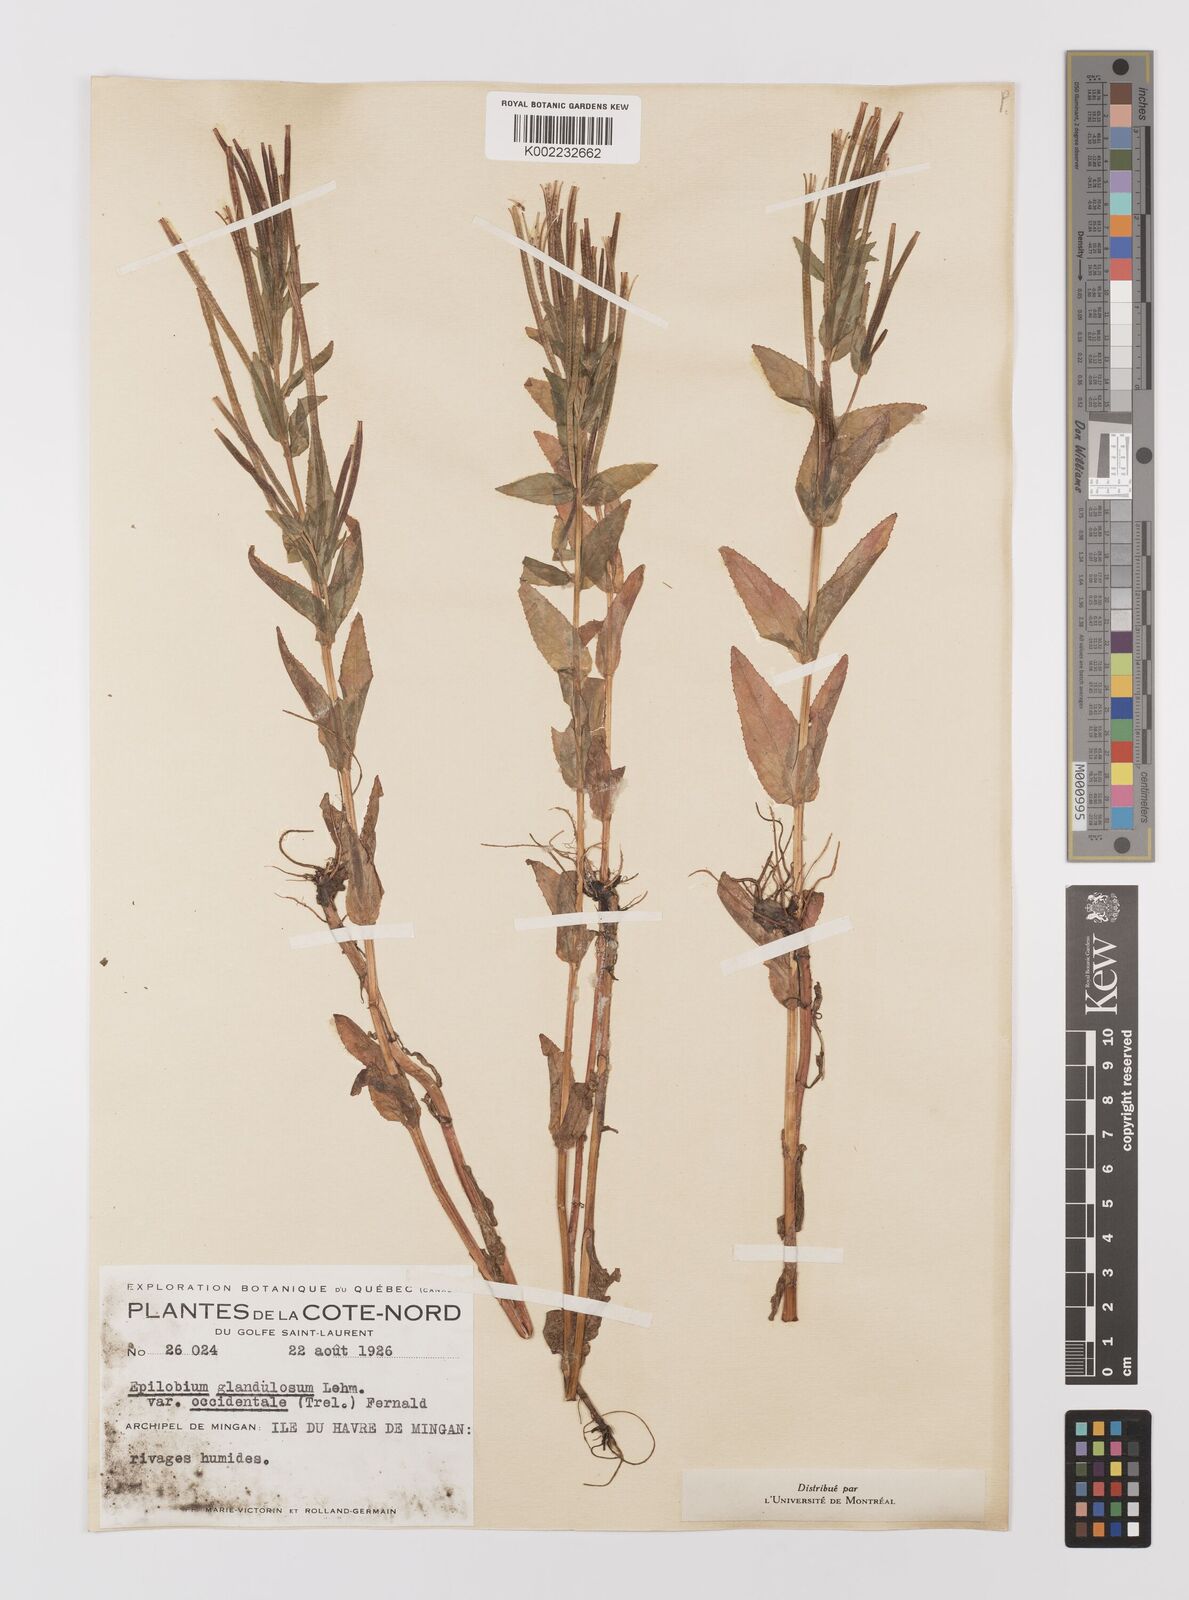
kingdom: Plantae
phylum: Tracheophyta
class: Magnoliopsida
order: Myrtales
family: Onagraceae
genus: Epilobium
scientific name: Epilobium ciliatum
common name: American willowherb
